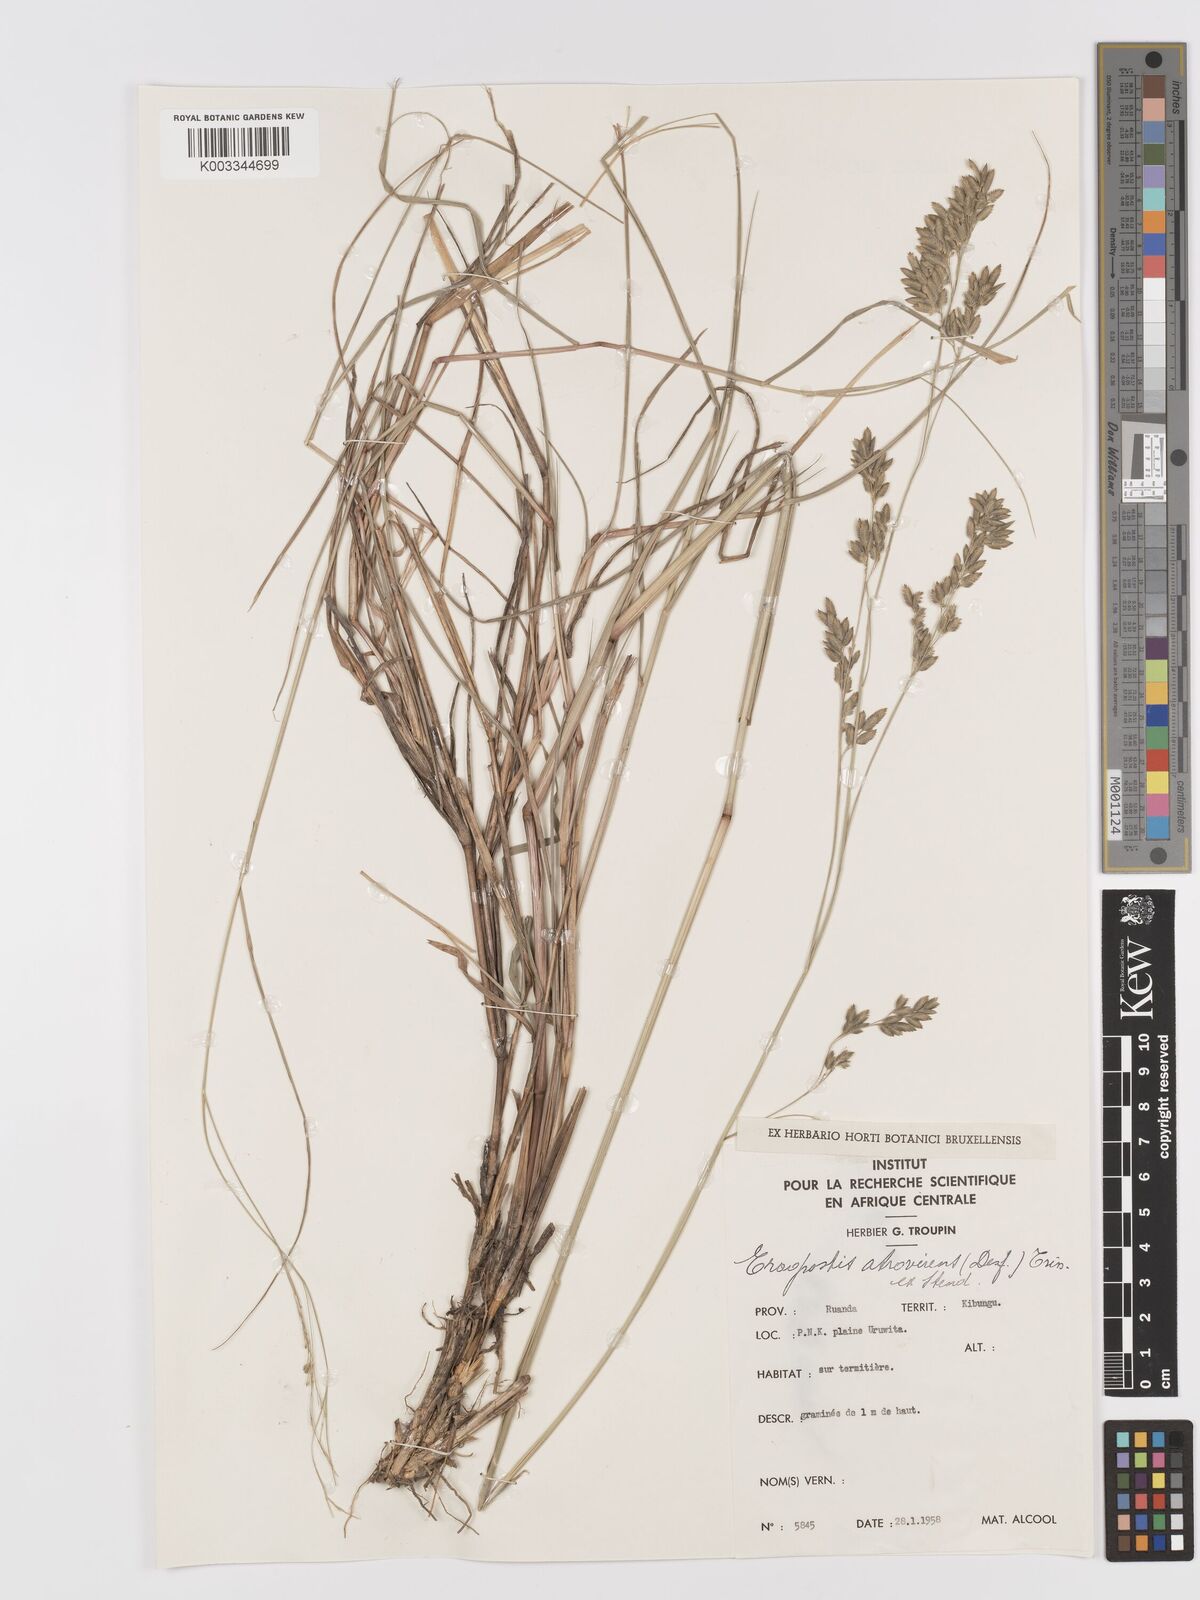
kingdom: Plantae
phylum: Tracheophyta
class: Liliopsida
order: Poales
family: Poaceae
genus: Eragrostis
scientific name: Eragrostis atrovirens
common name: Thalia lovegrass
